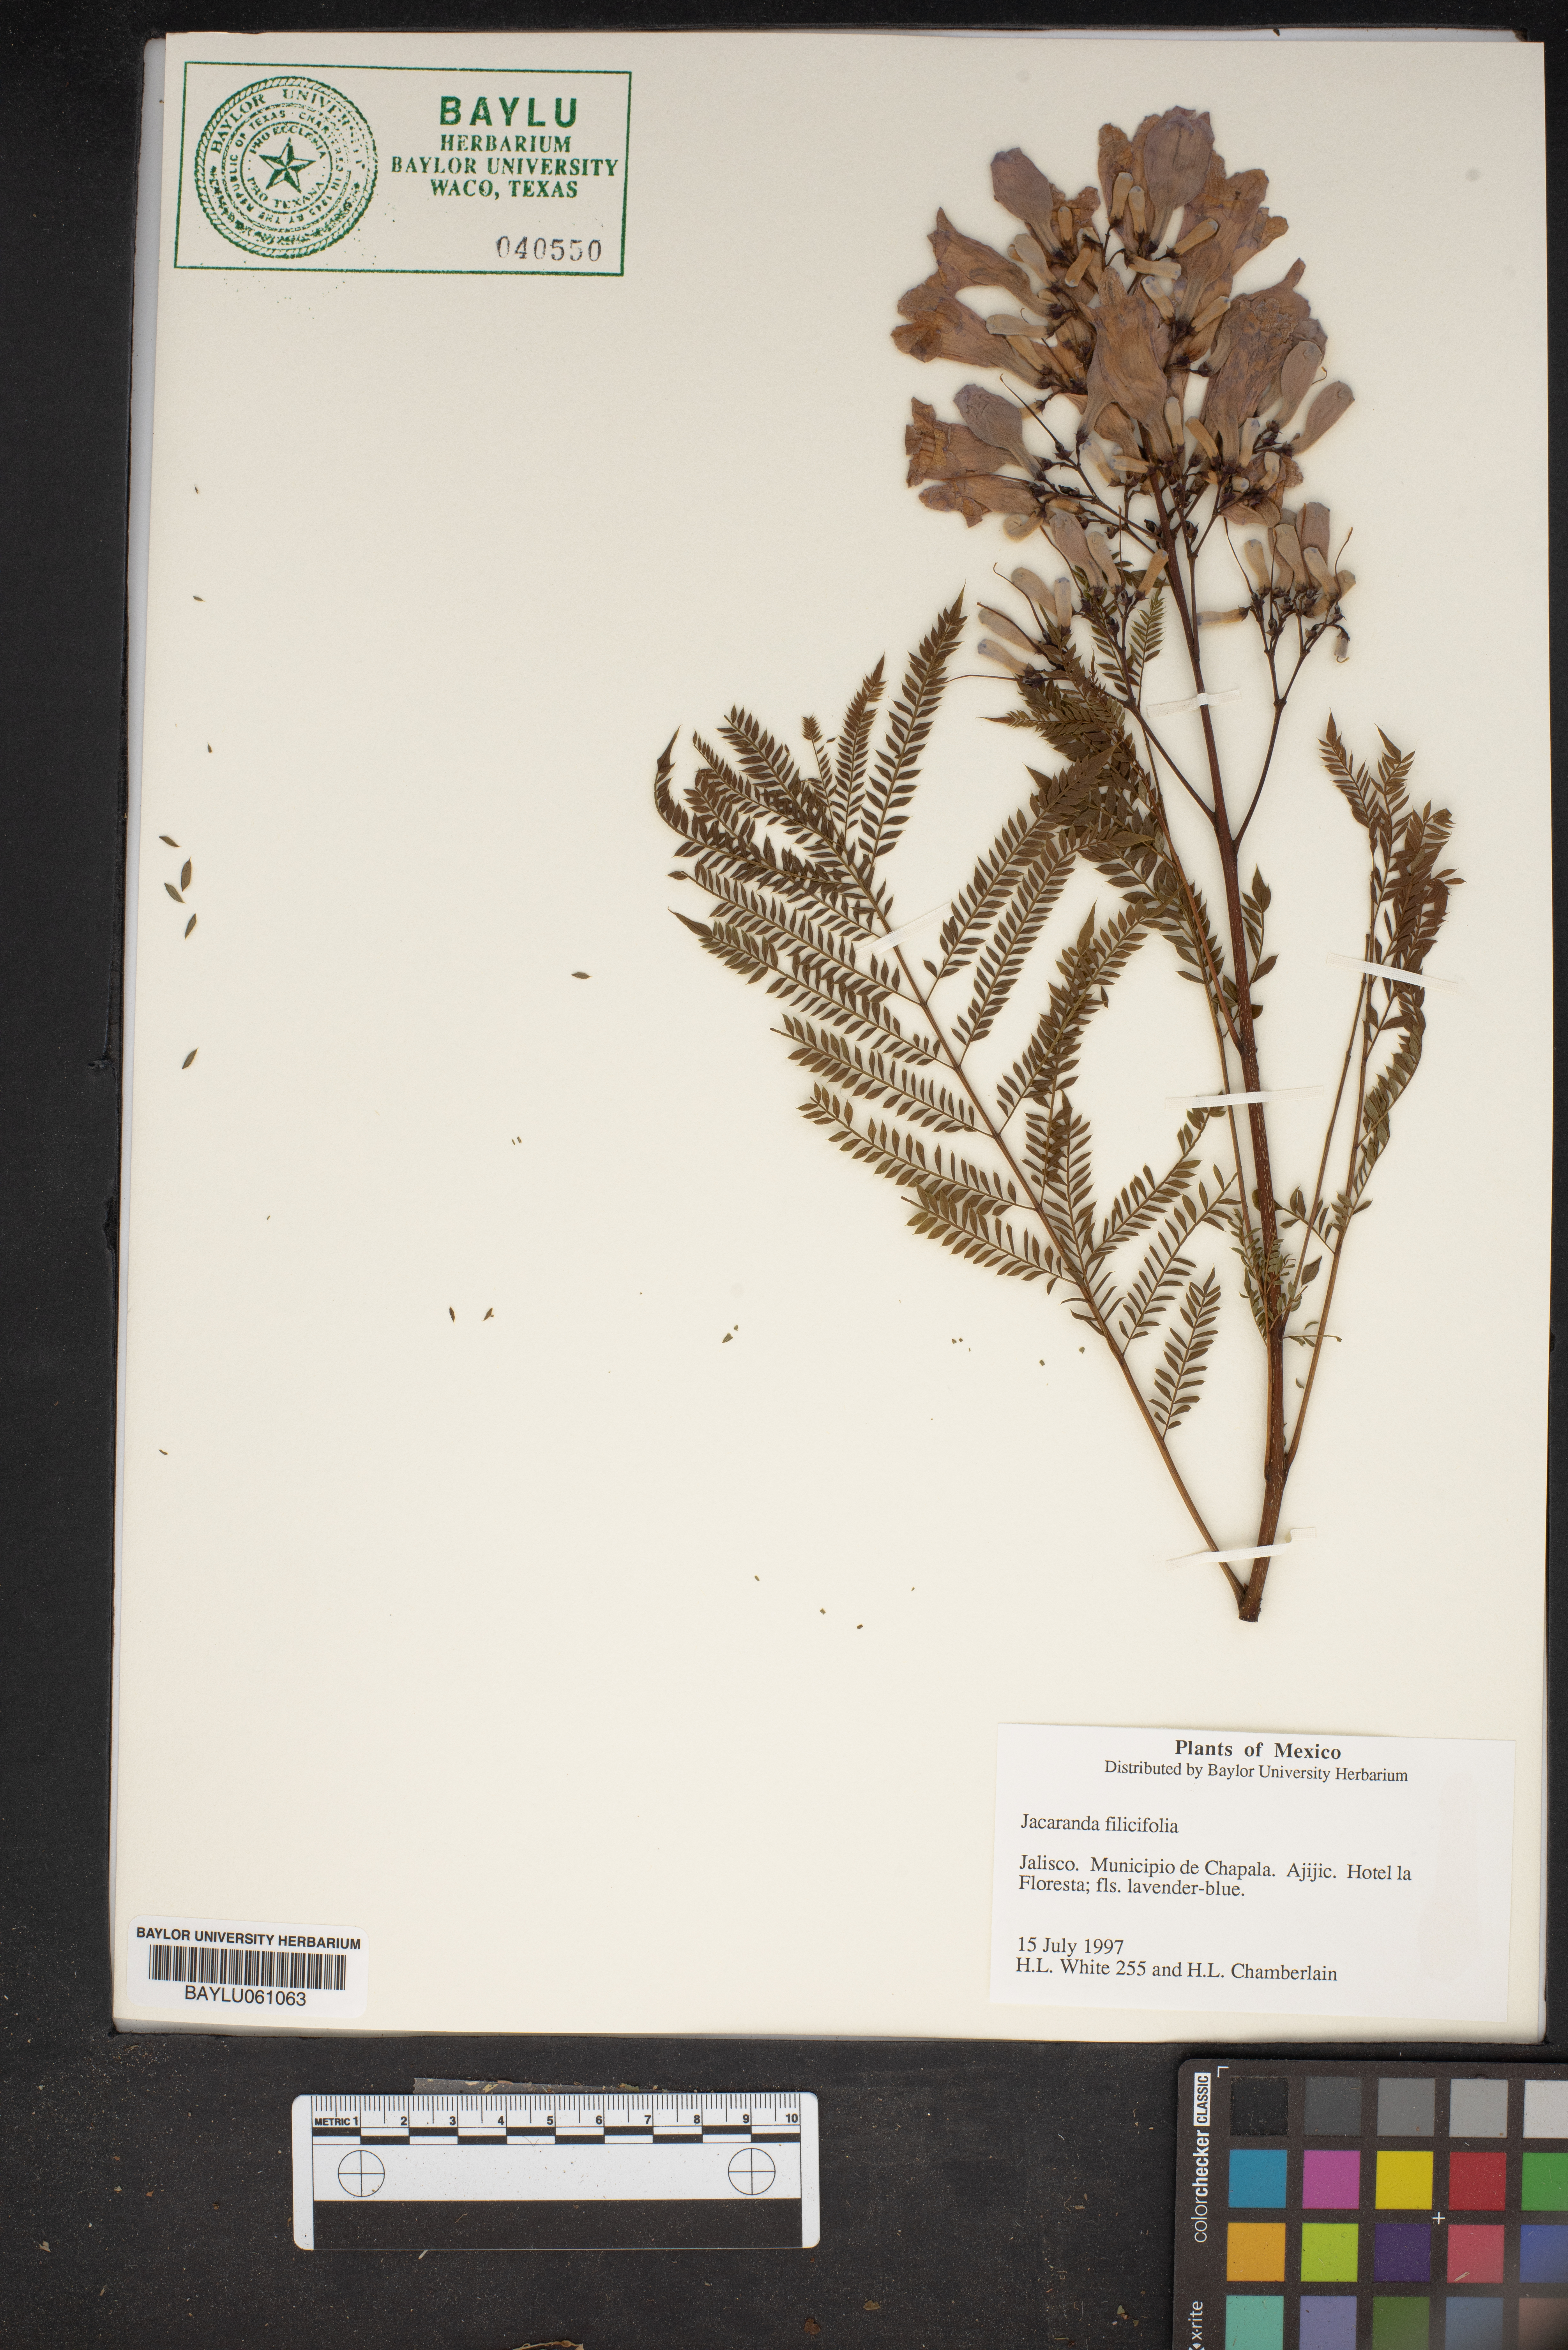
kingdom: Plantae
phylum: Tracheophyta
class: Magnoliopsida
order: Lamiales
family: Bignoniaceae
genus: Jacaranda
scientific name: Jacaranda
